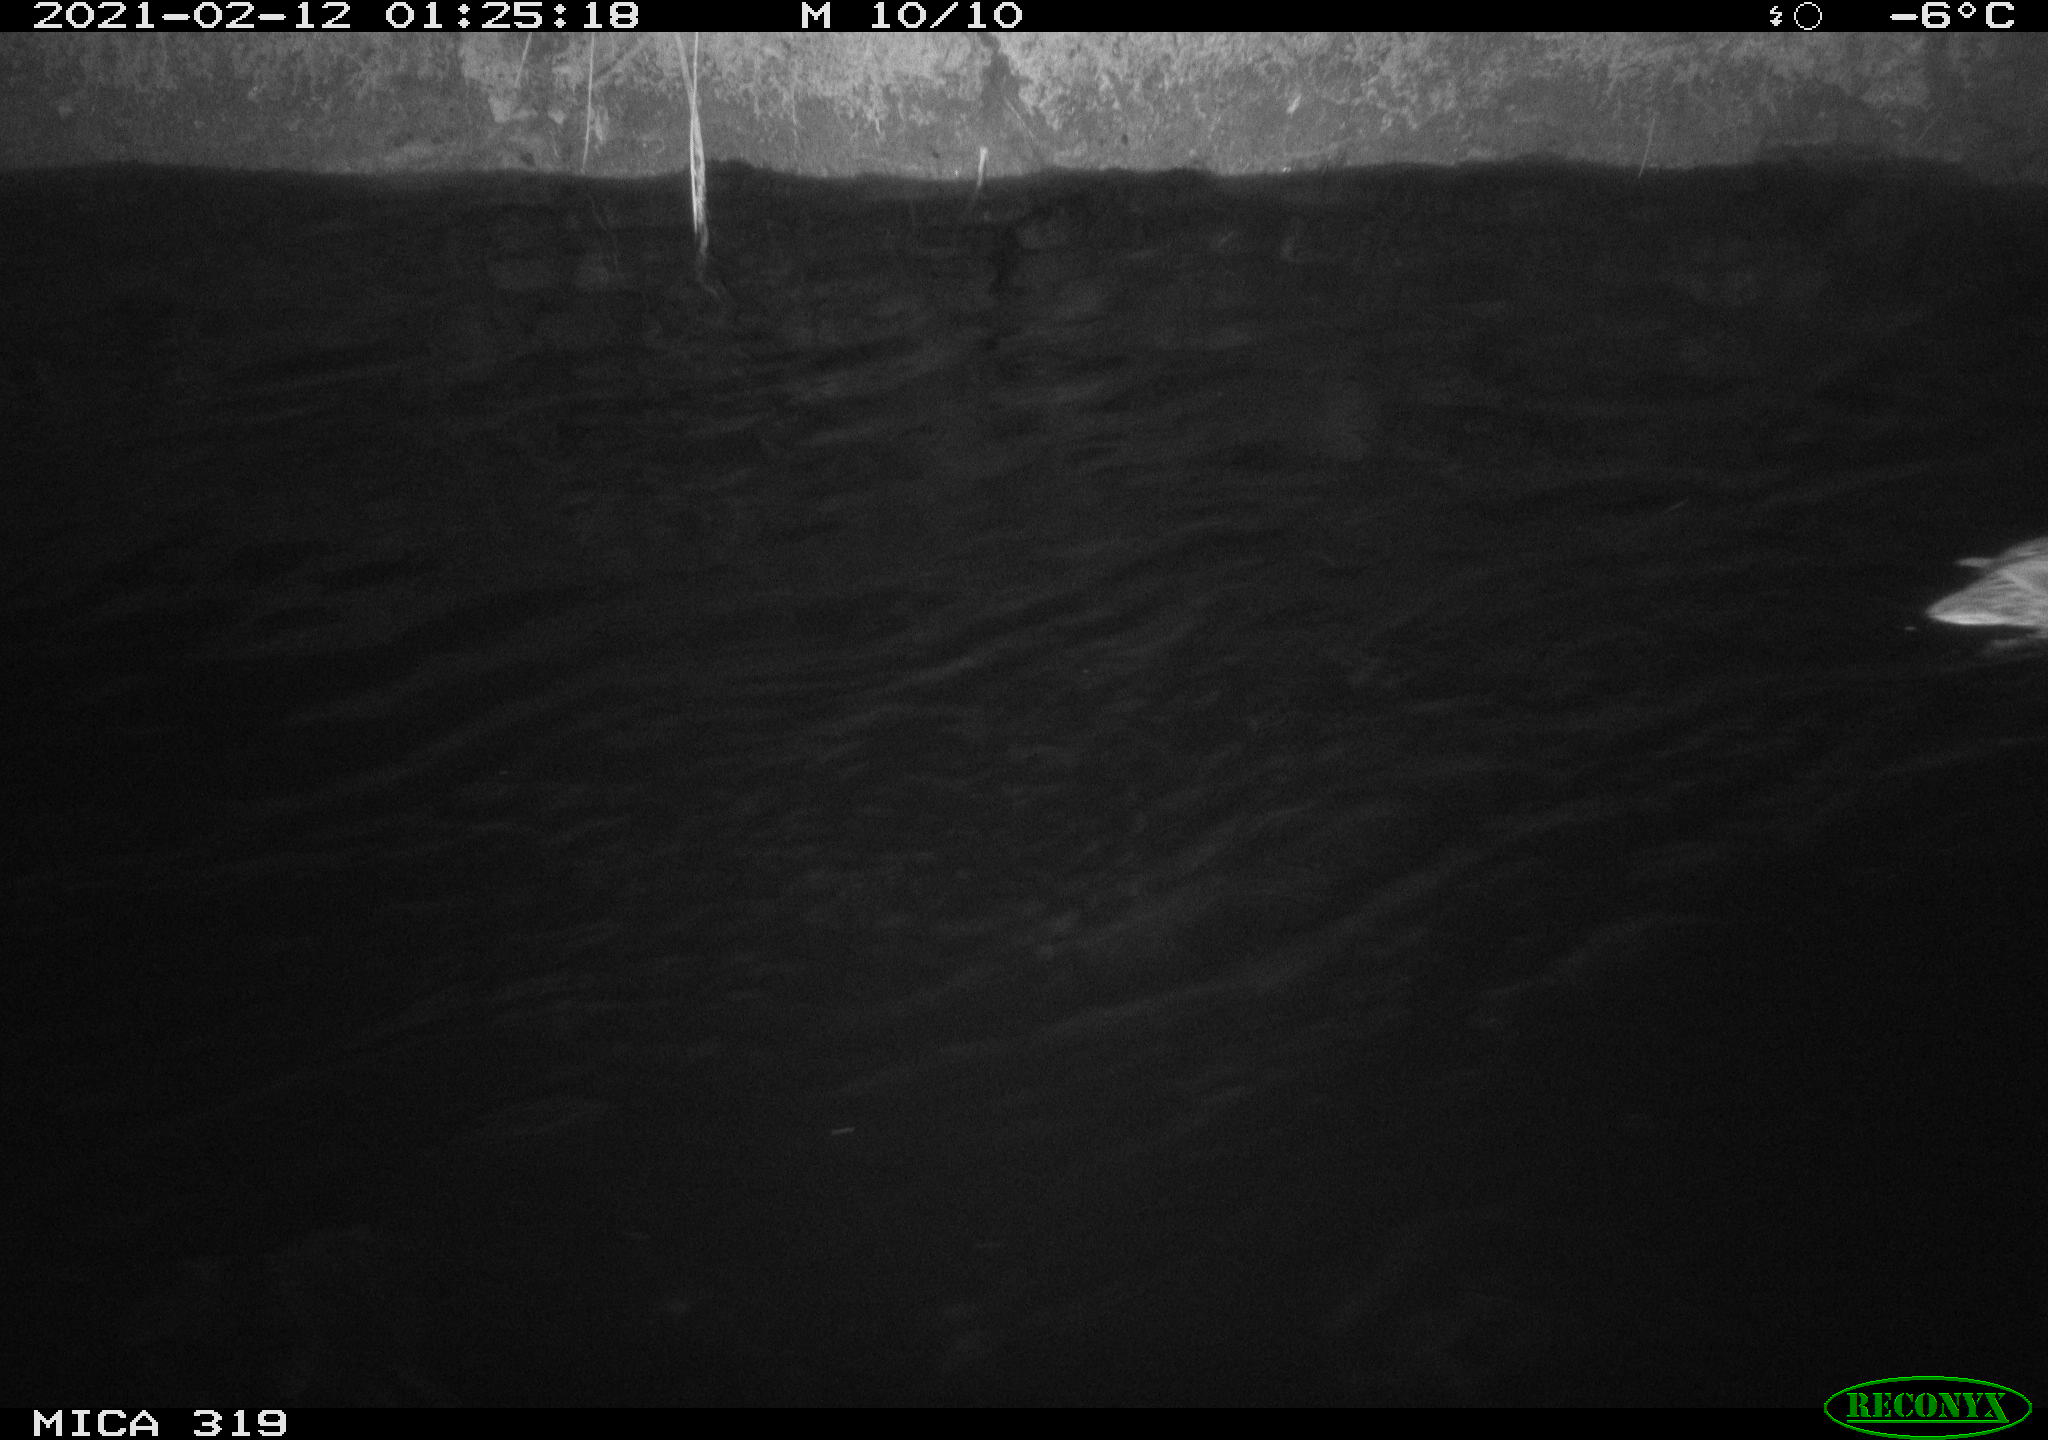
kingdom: Animalia
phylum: Chordata
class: Aves
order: Anseriformes
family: Anatidae
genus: Anas
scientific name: Anas platyrhynchos
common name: Mallard
